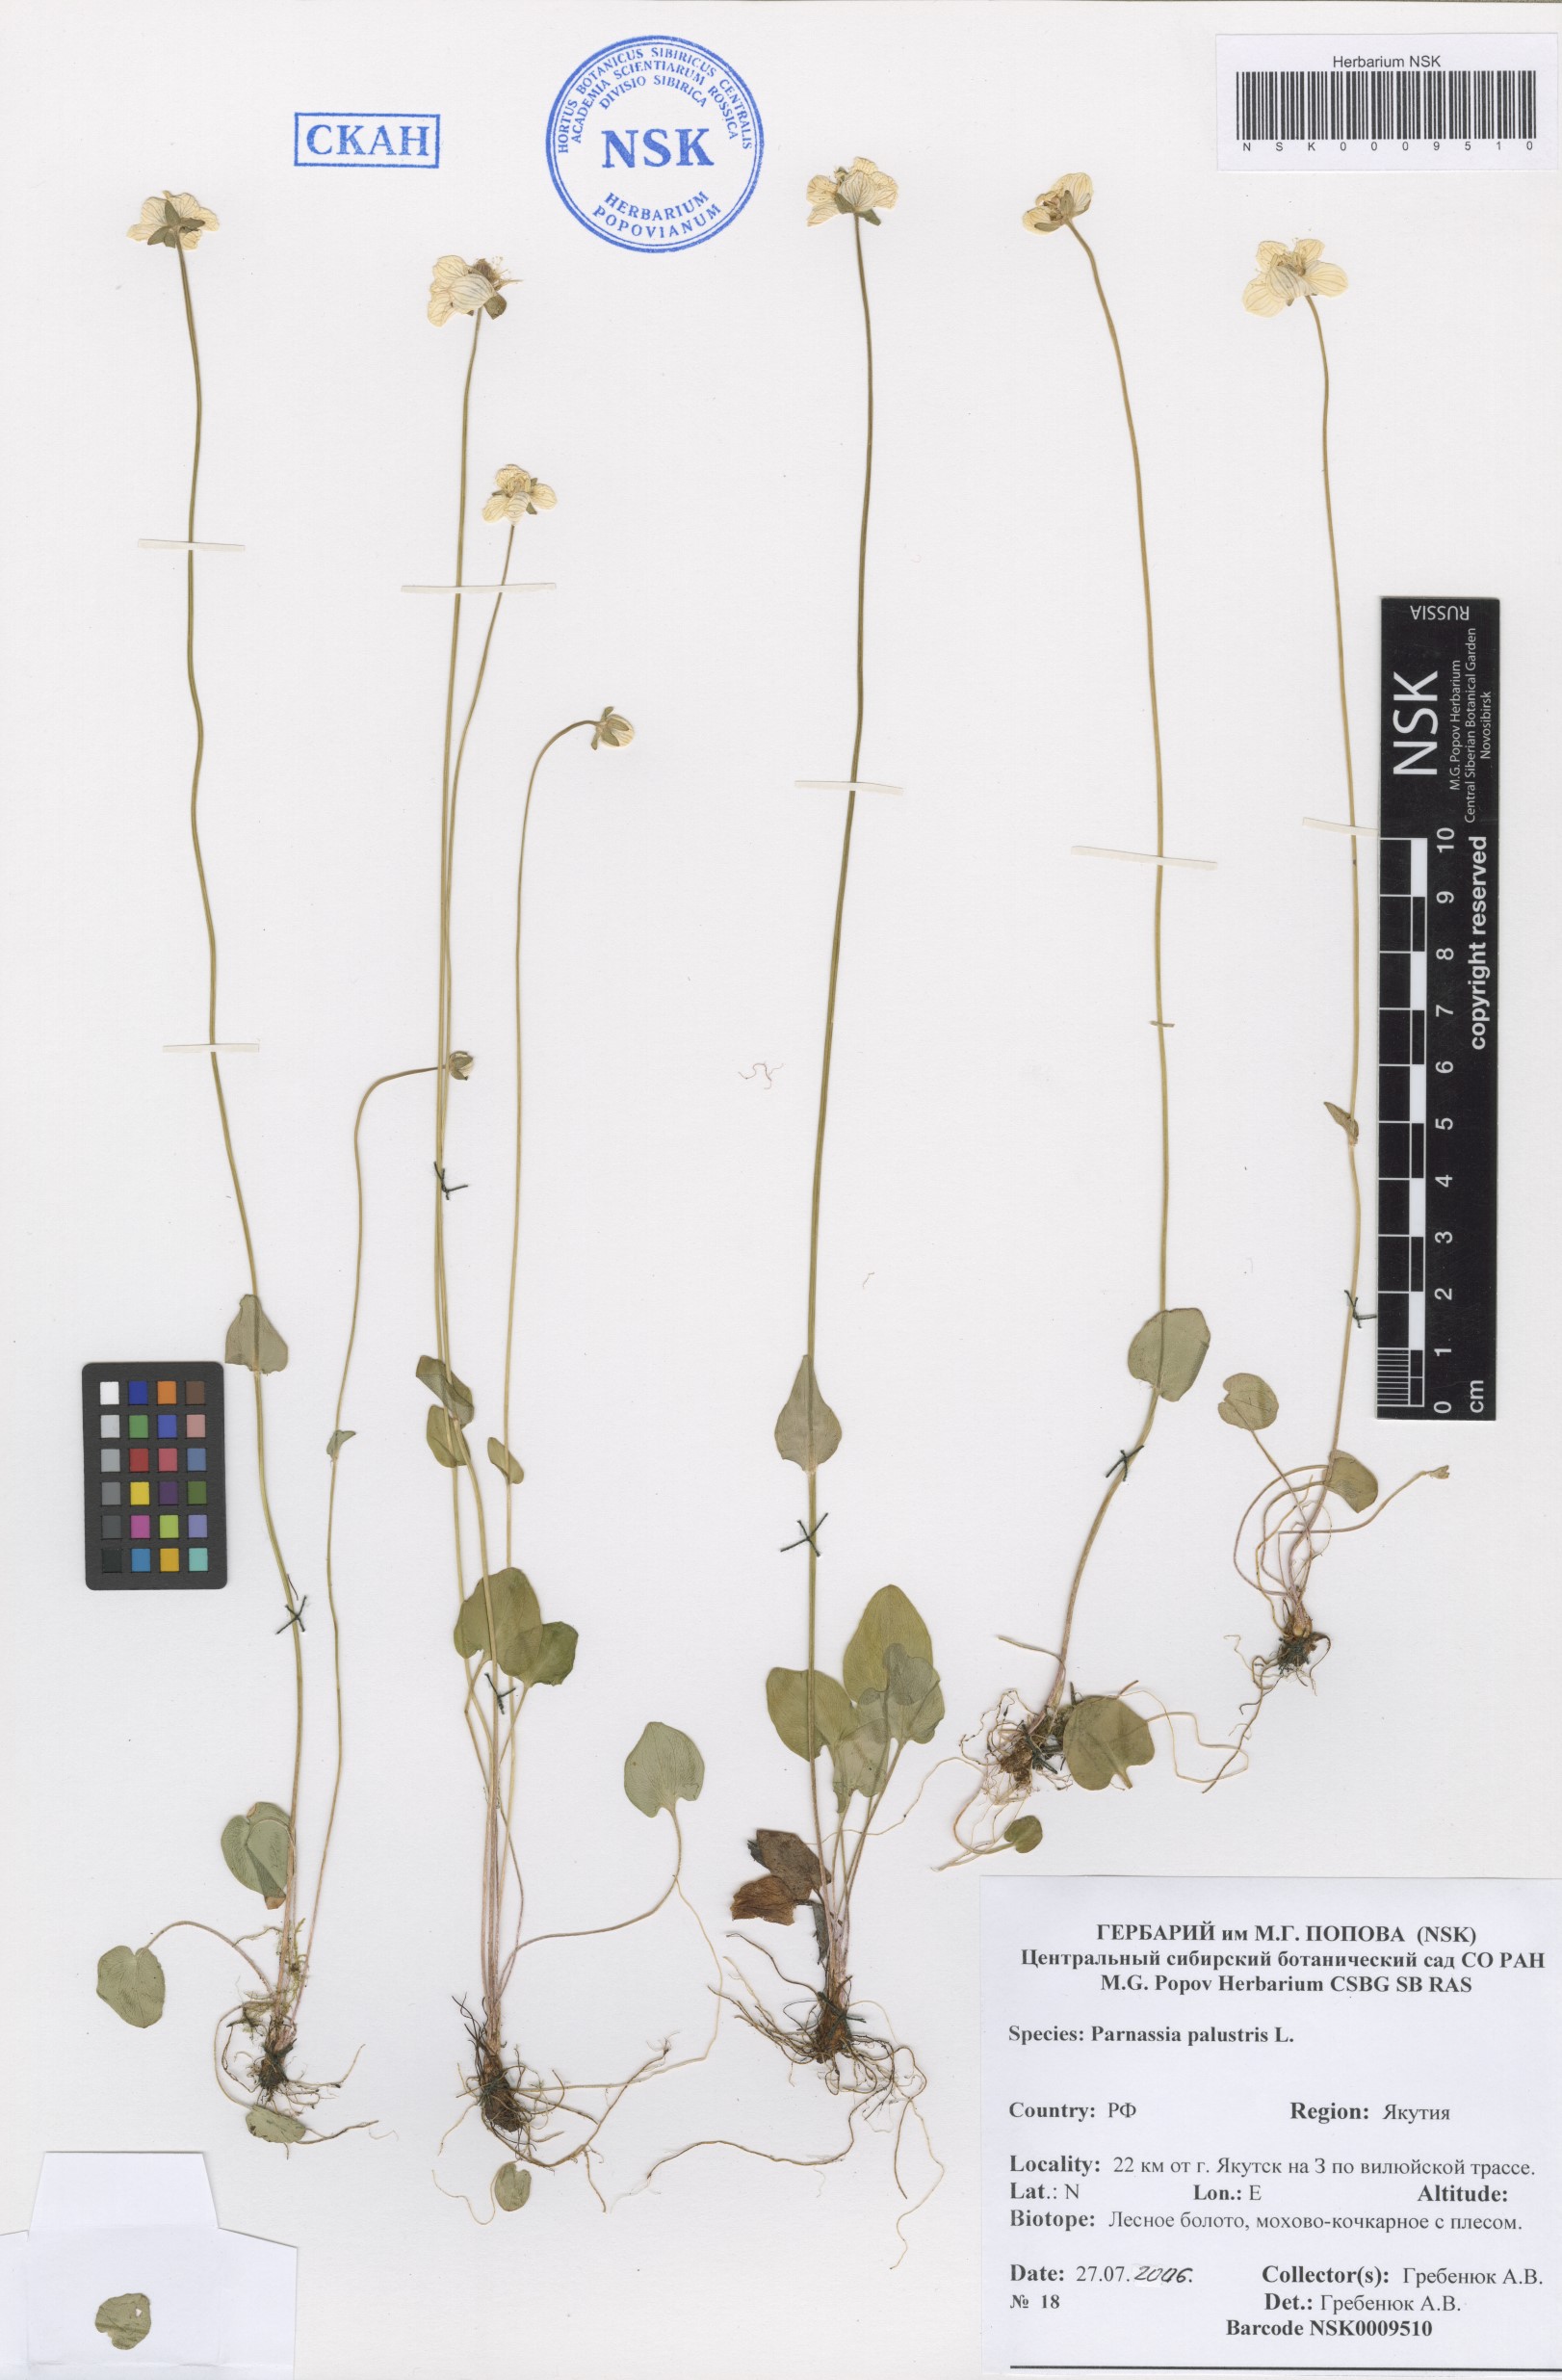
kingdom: Plantae
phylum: Tracheophyta
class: Magnoliopsida
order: Celastrales
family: Parnassiaceae
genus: Parnassia
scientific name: Parnassia palustris
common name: Grass-of-parnassus
